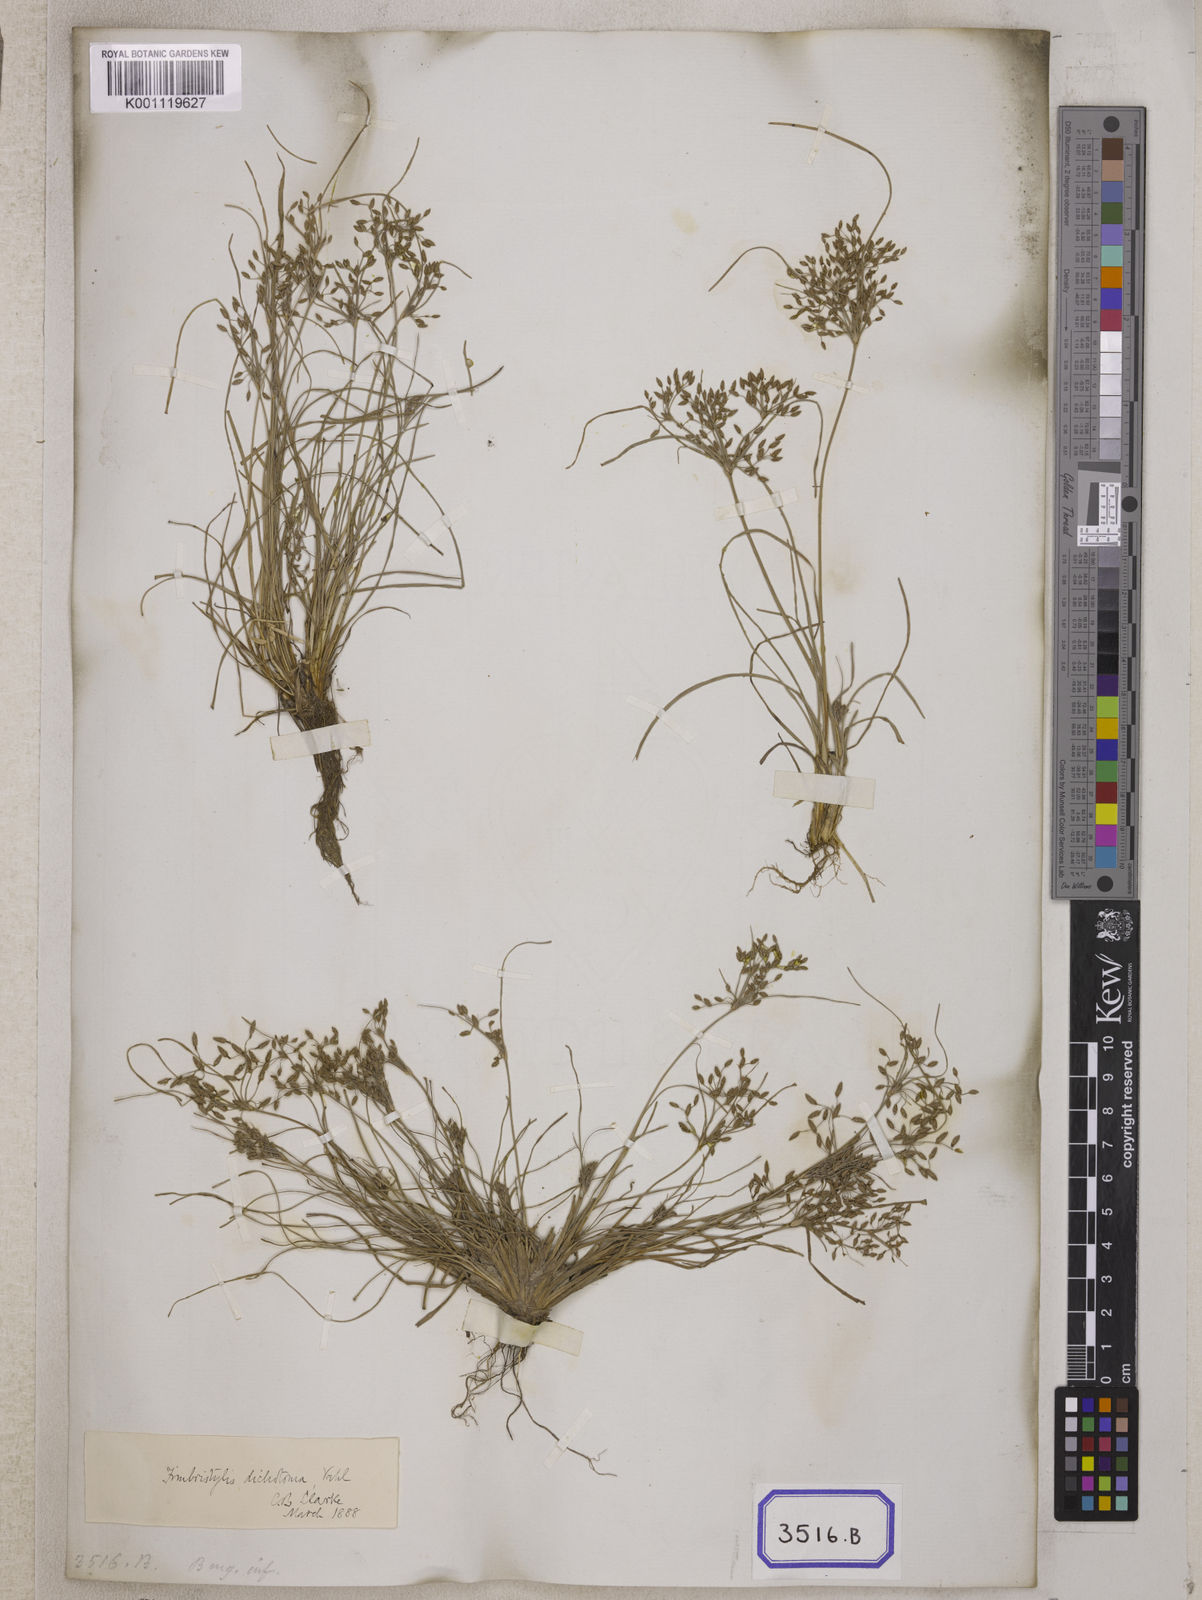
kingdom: Plantae
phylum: Tracheophyta
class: Liliopsida
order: Poales
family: Cyperaceae
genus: Fimbristylis
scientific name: Fimbristylis
